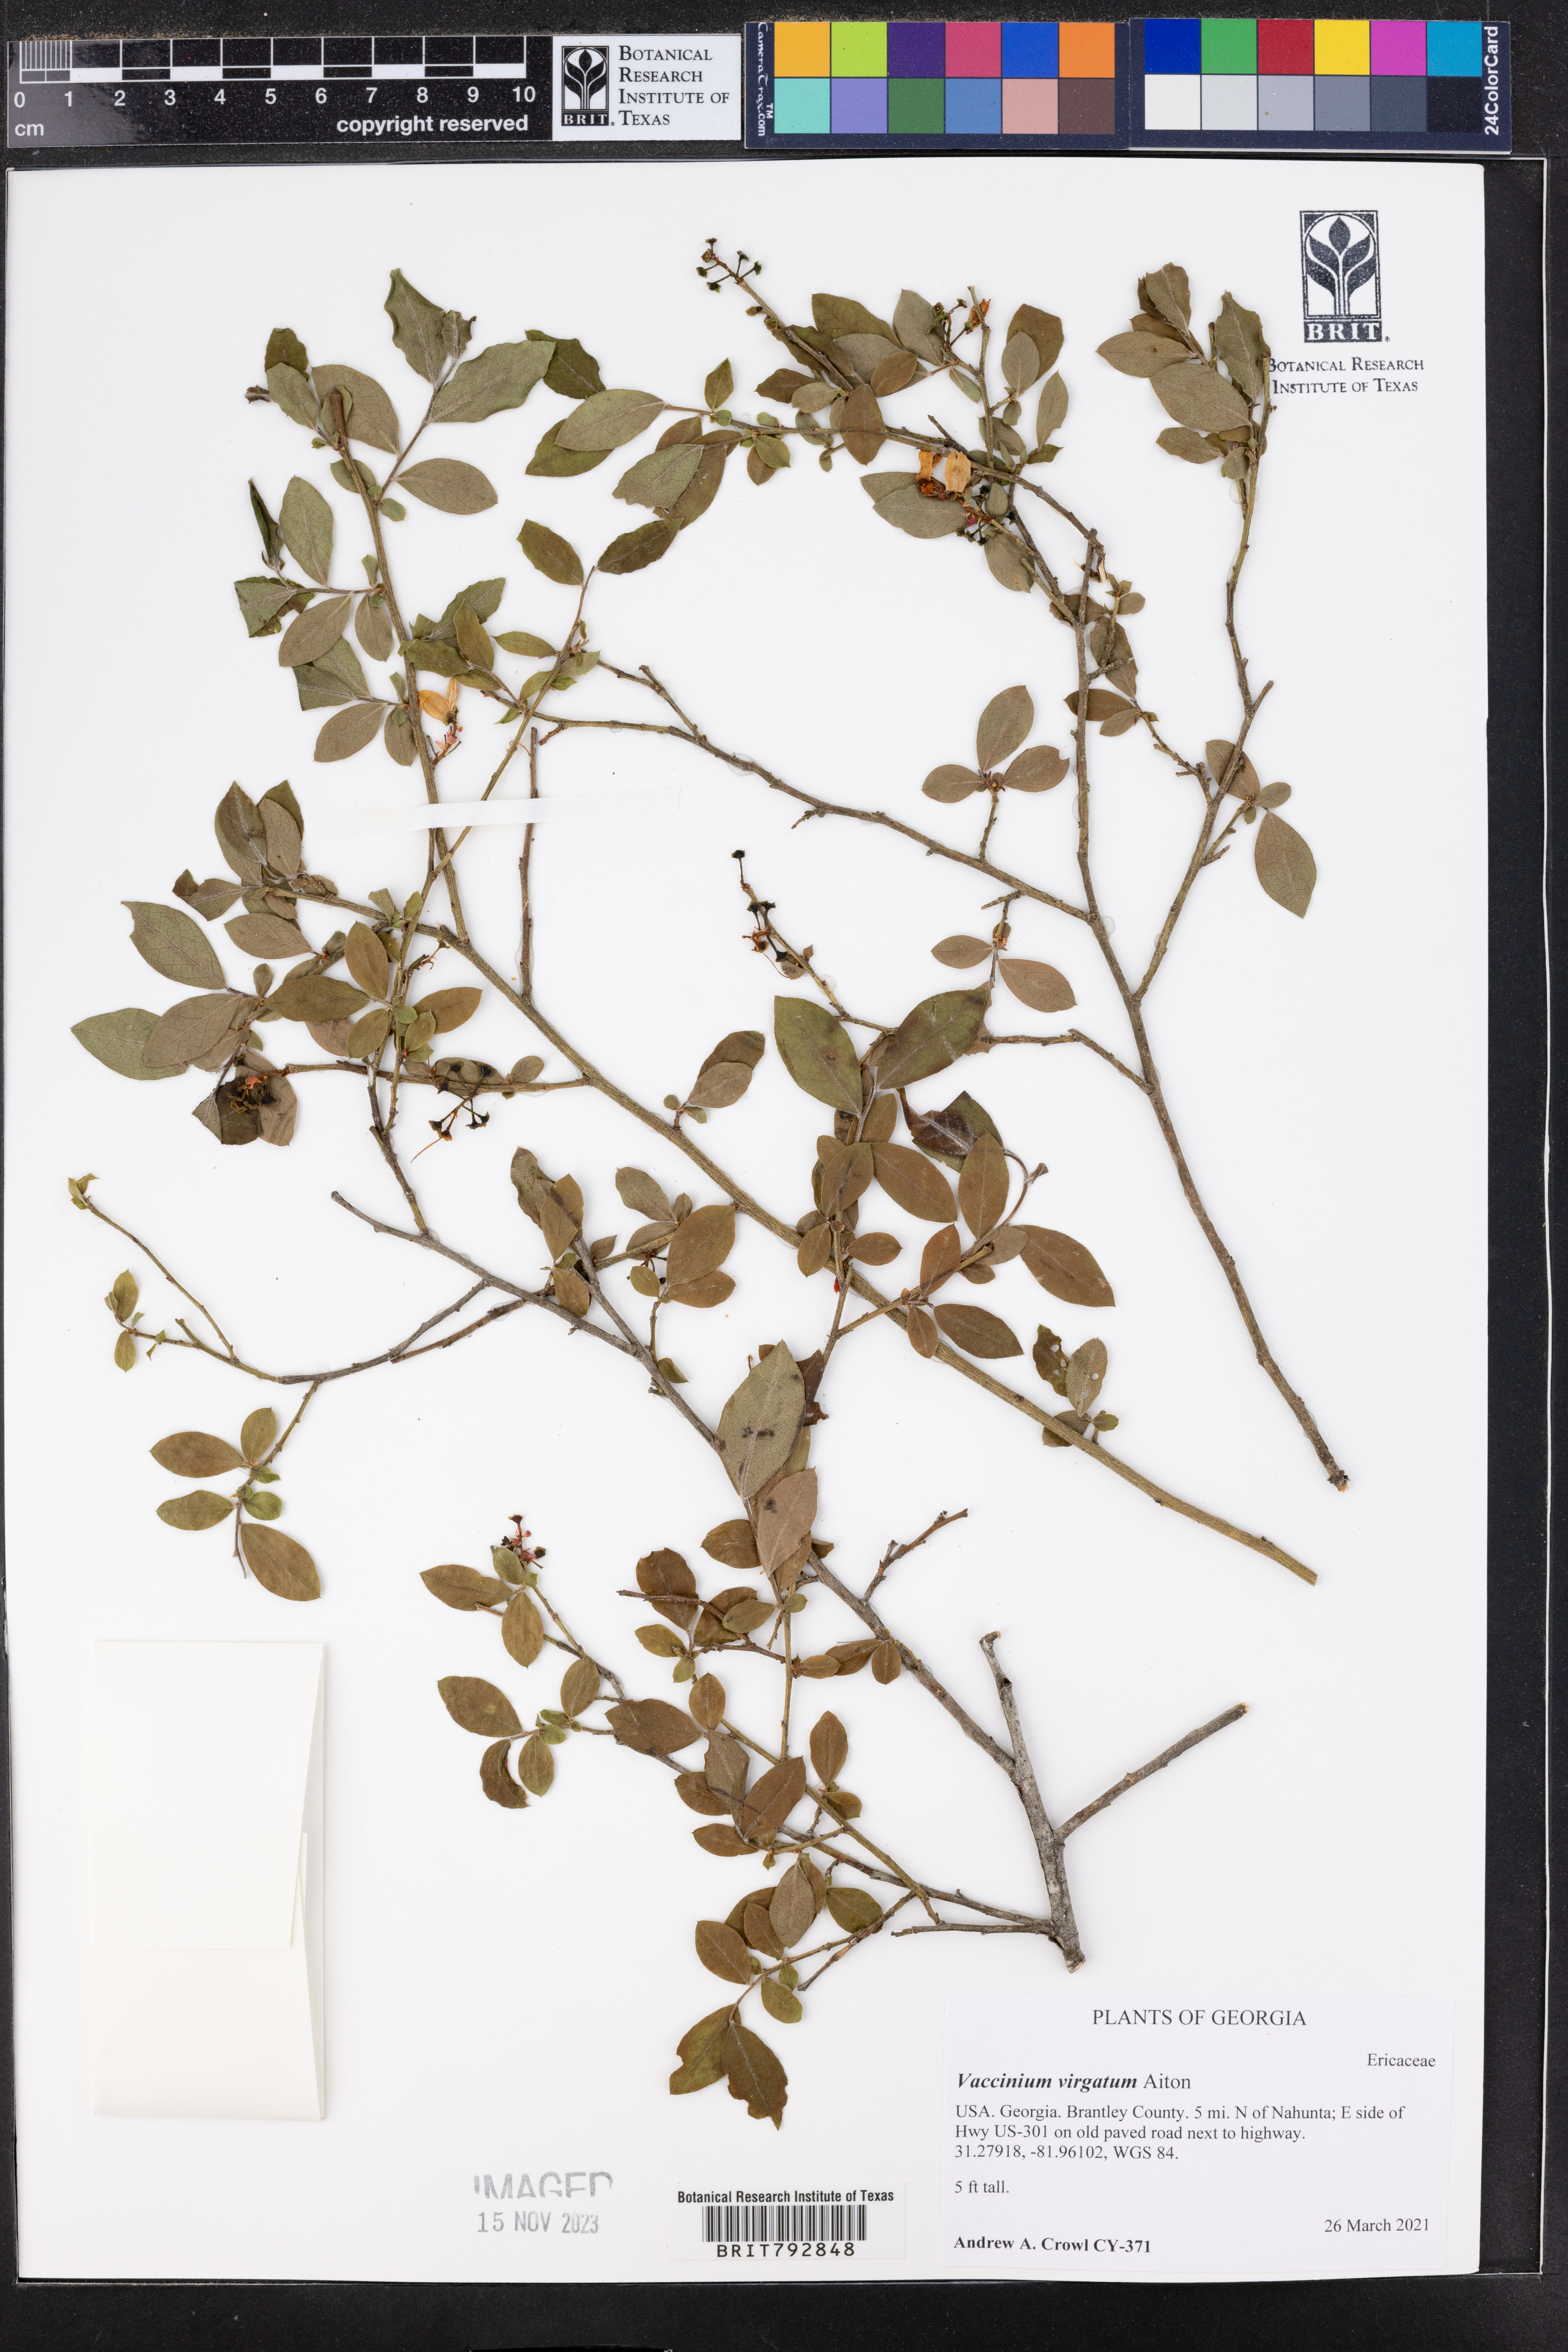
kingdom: Plantae
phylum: Tracheophyta
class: Magnoliopsida
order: Ericales
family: Ericaceae
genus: Vaccinium
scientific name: Vaccinium corymbosum
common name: Blueberry
